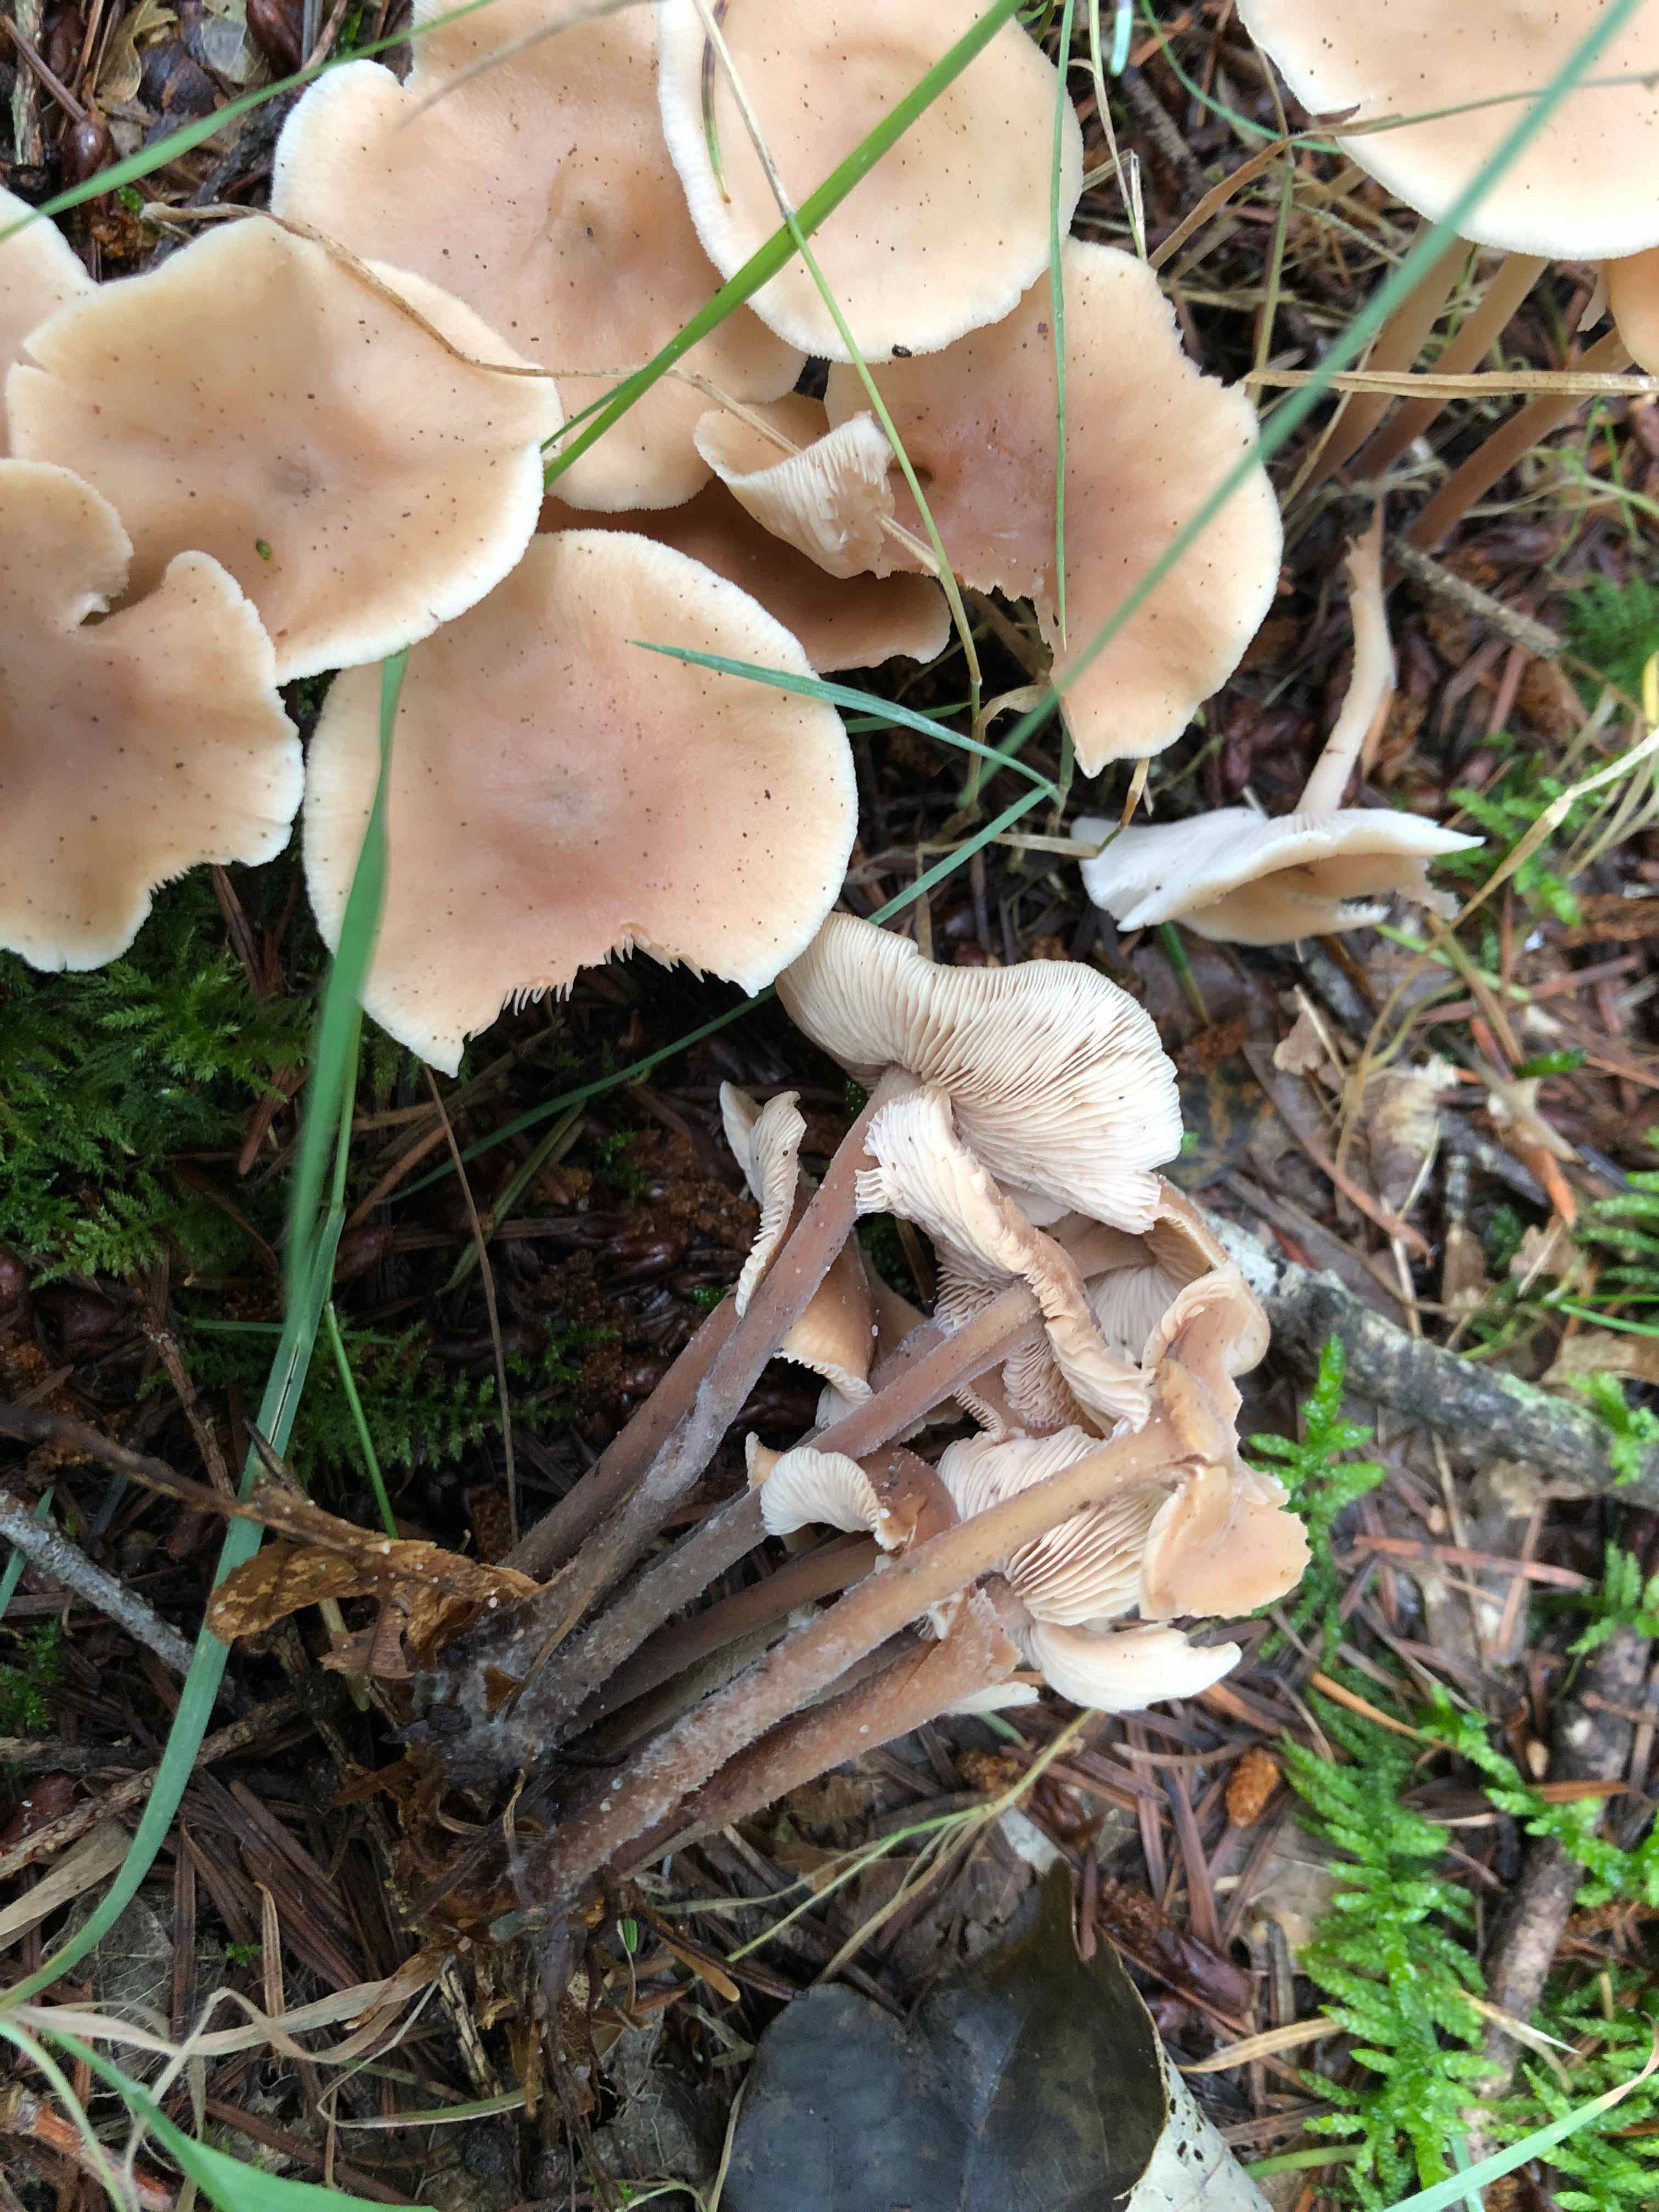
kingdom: Fungi
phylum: Basidiomycota
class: Agaricomycetes
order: Agaricales
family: Omphalotaceae
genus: Collybiopsis
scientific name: Collybiopsis confluens
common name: knippe-fladhat
